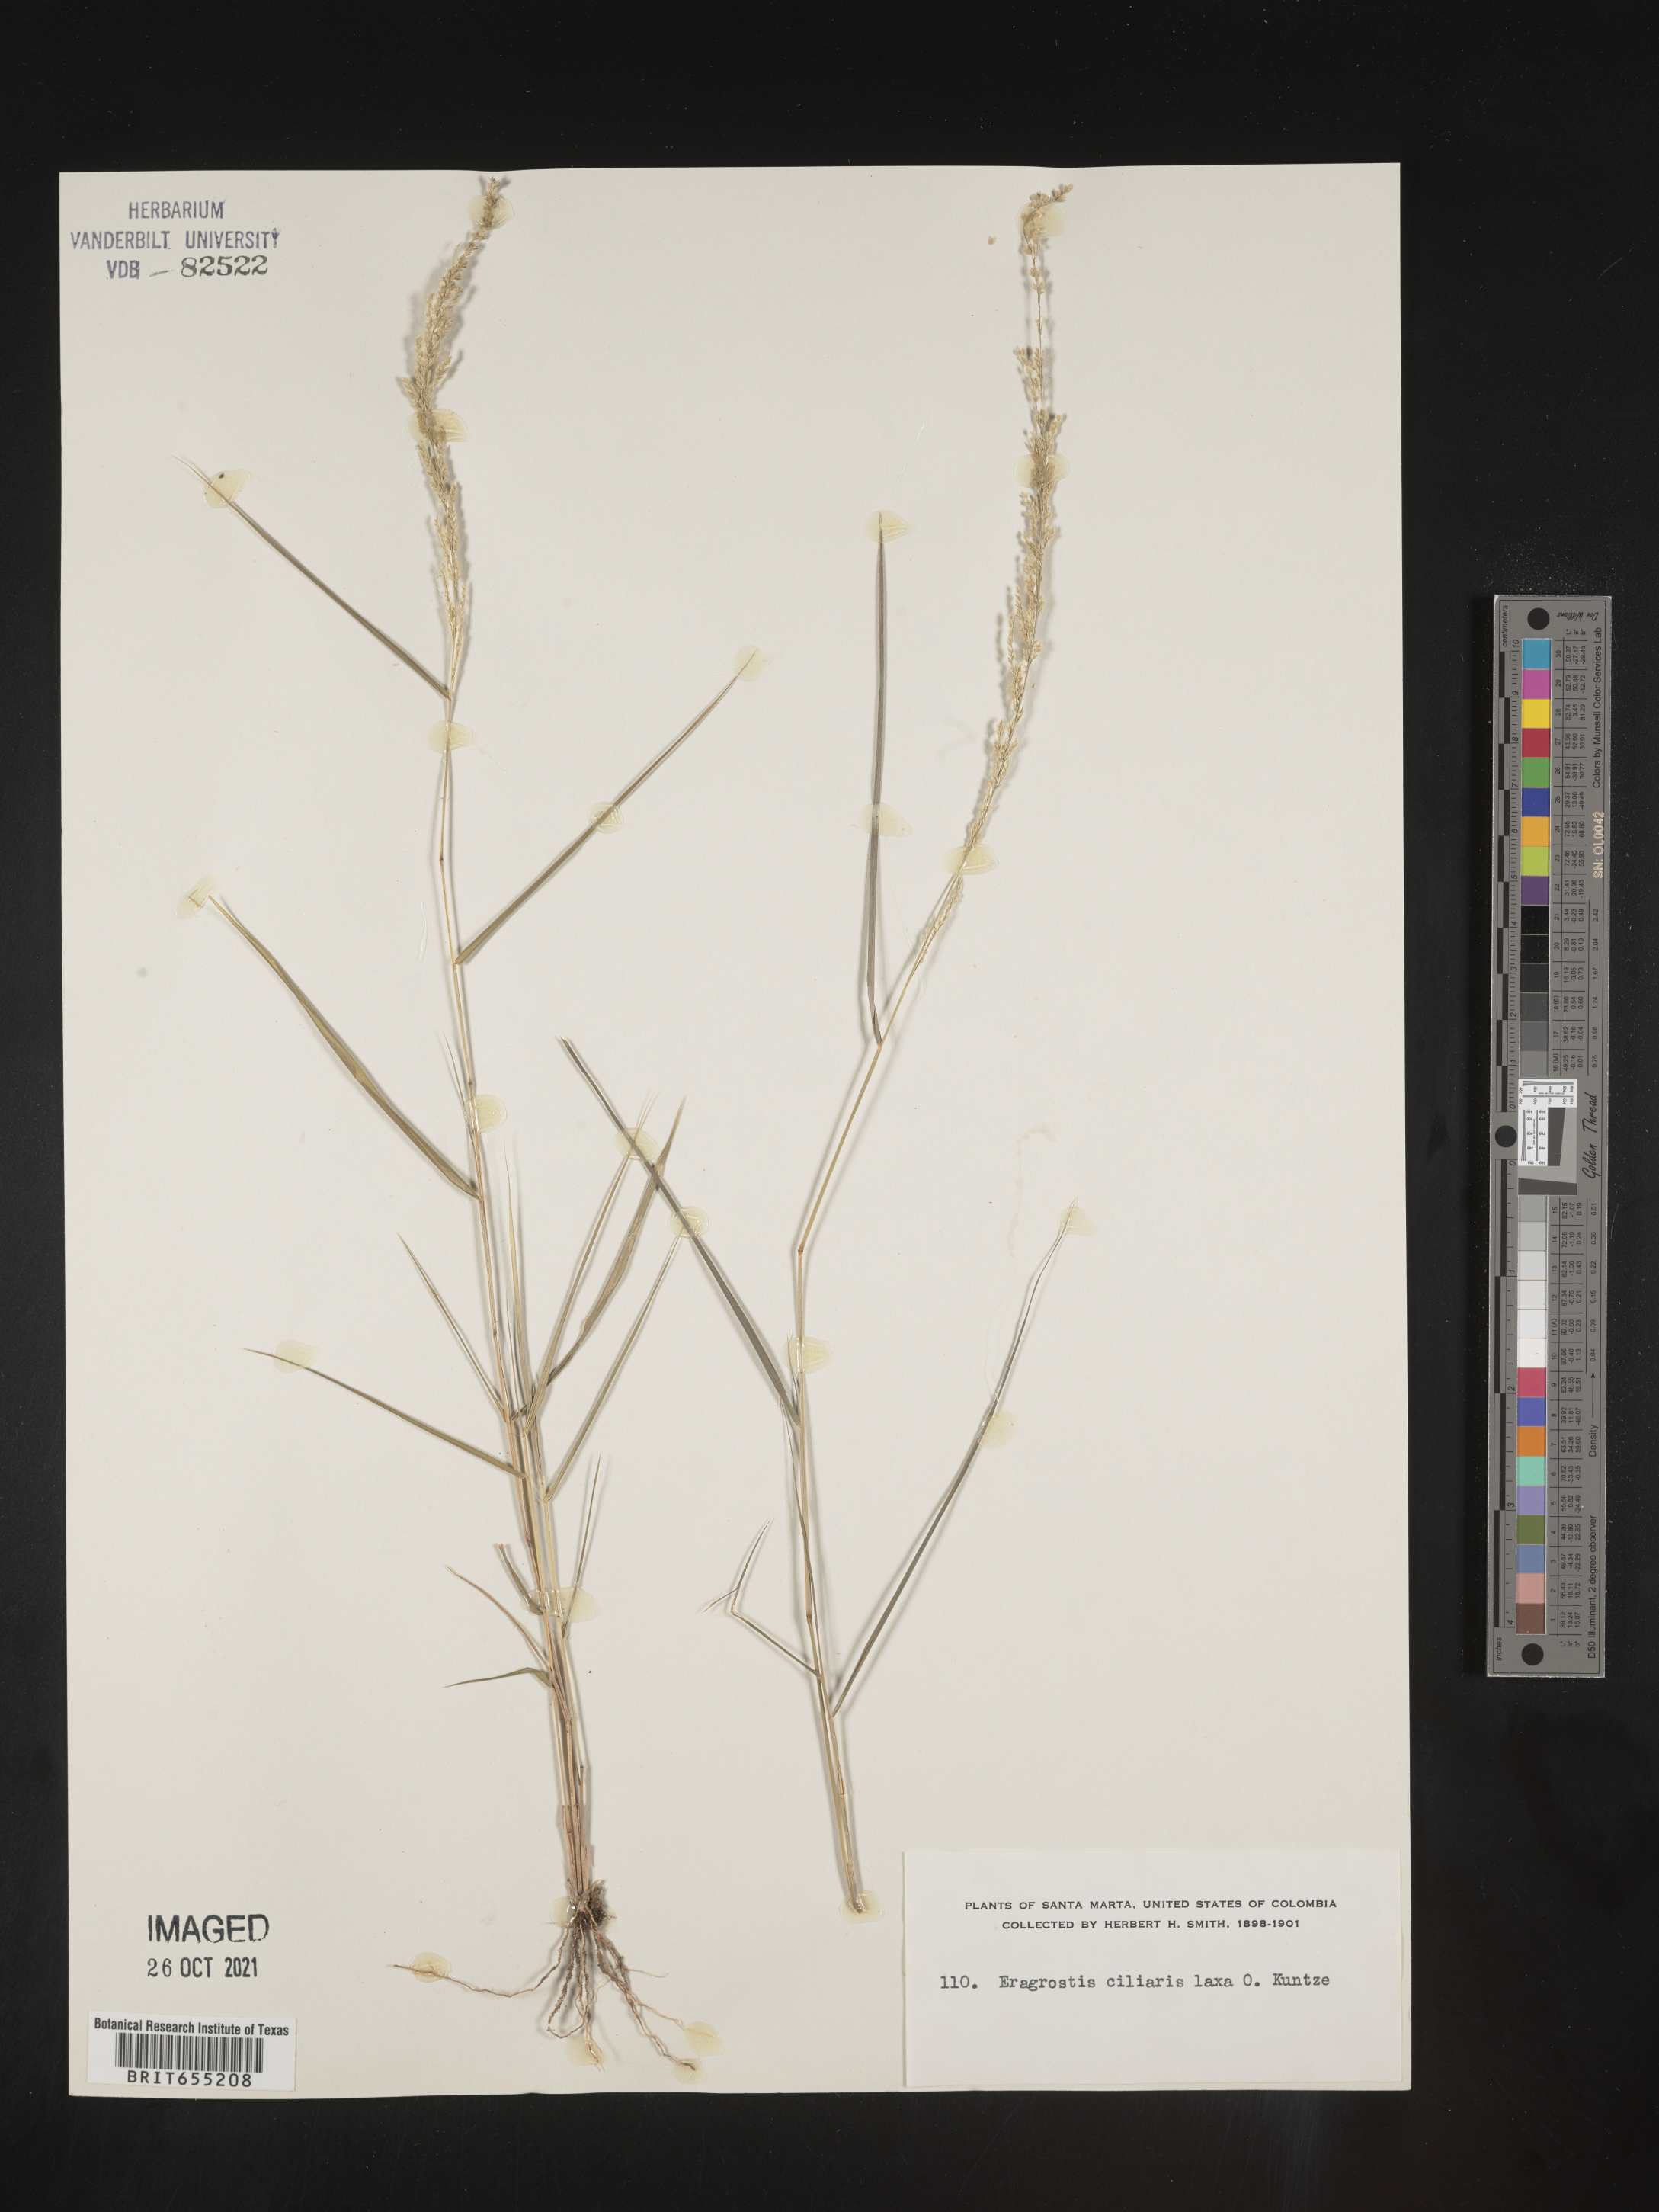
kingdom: Plantae
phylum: Tracheophyta
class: Liliopsida
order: Poales
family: Poaceae
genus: Eragrostis
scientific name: Eragrostis
